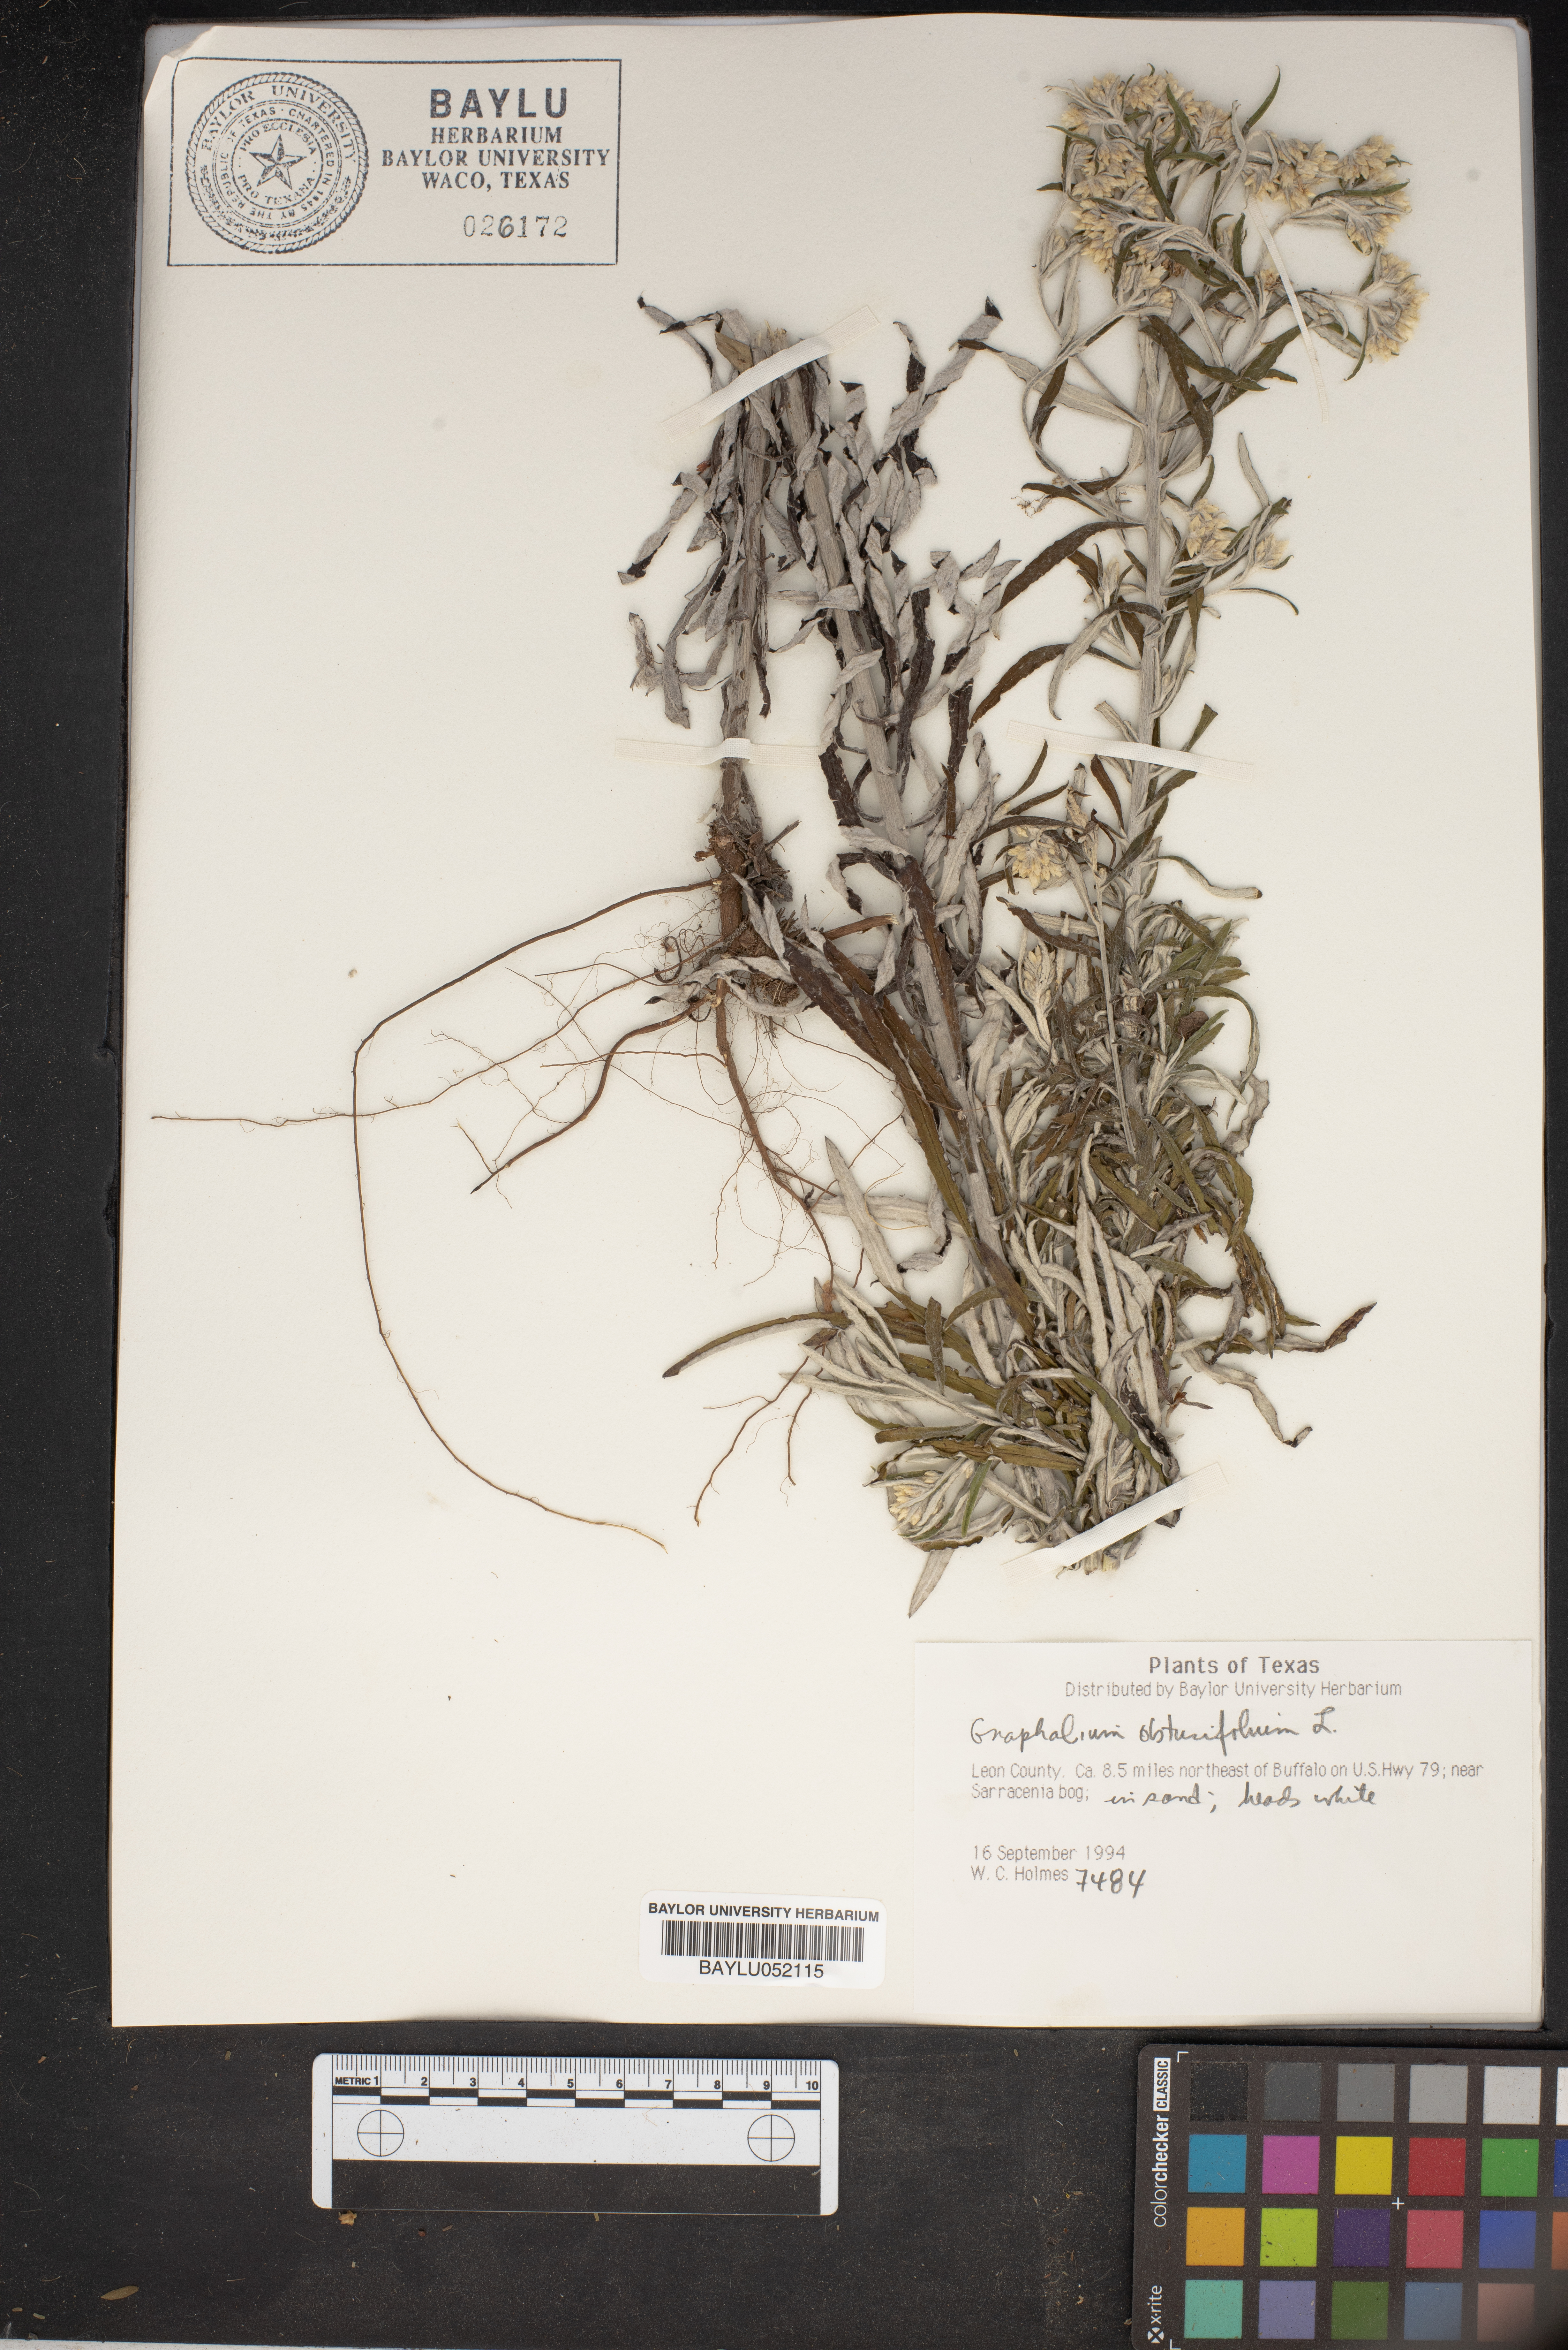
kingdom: Plantae
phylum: Tracheophyta
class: Magnoliopsida
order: Asterales
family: Asteraceae
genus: Pseudognaphalium
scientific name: Pseudognaphalium obtusifolium
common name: Eastern rabbit-tobacco
